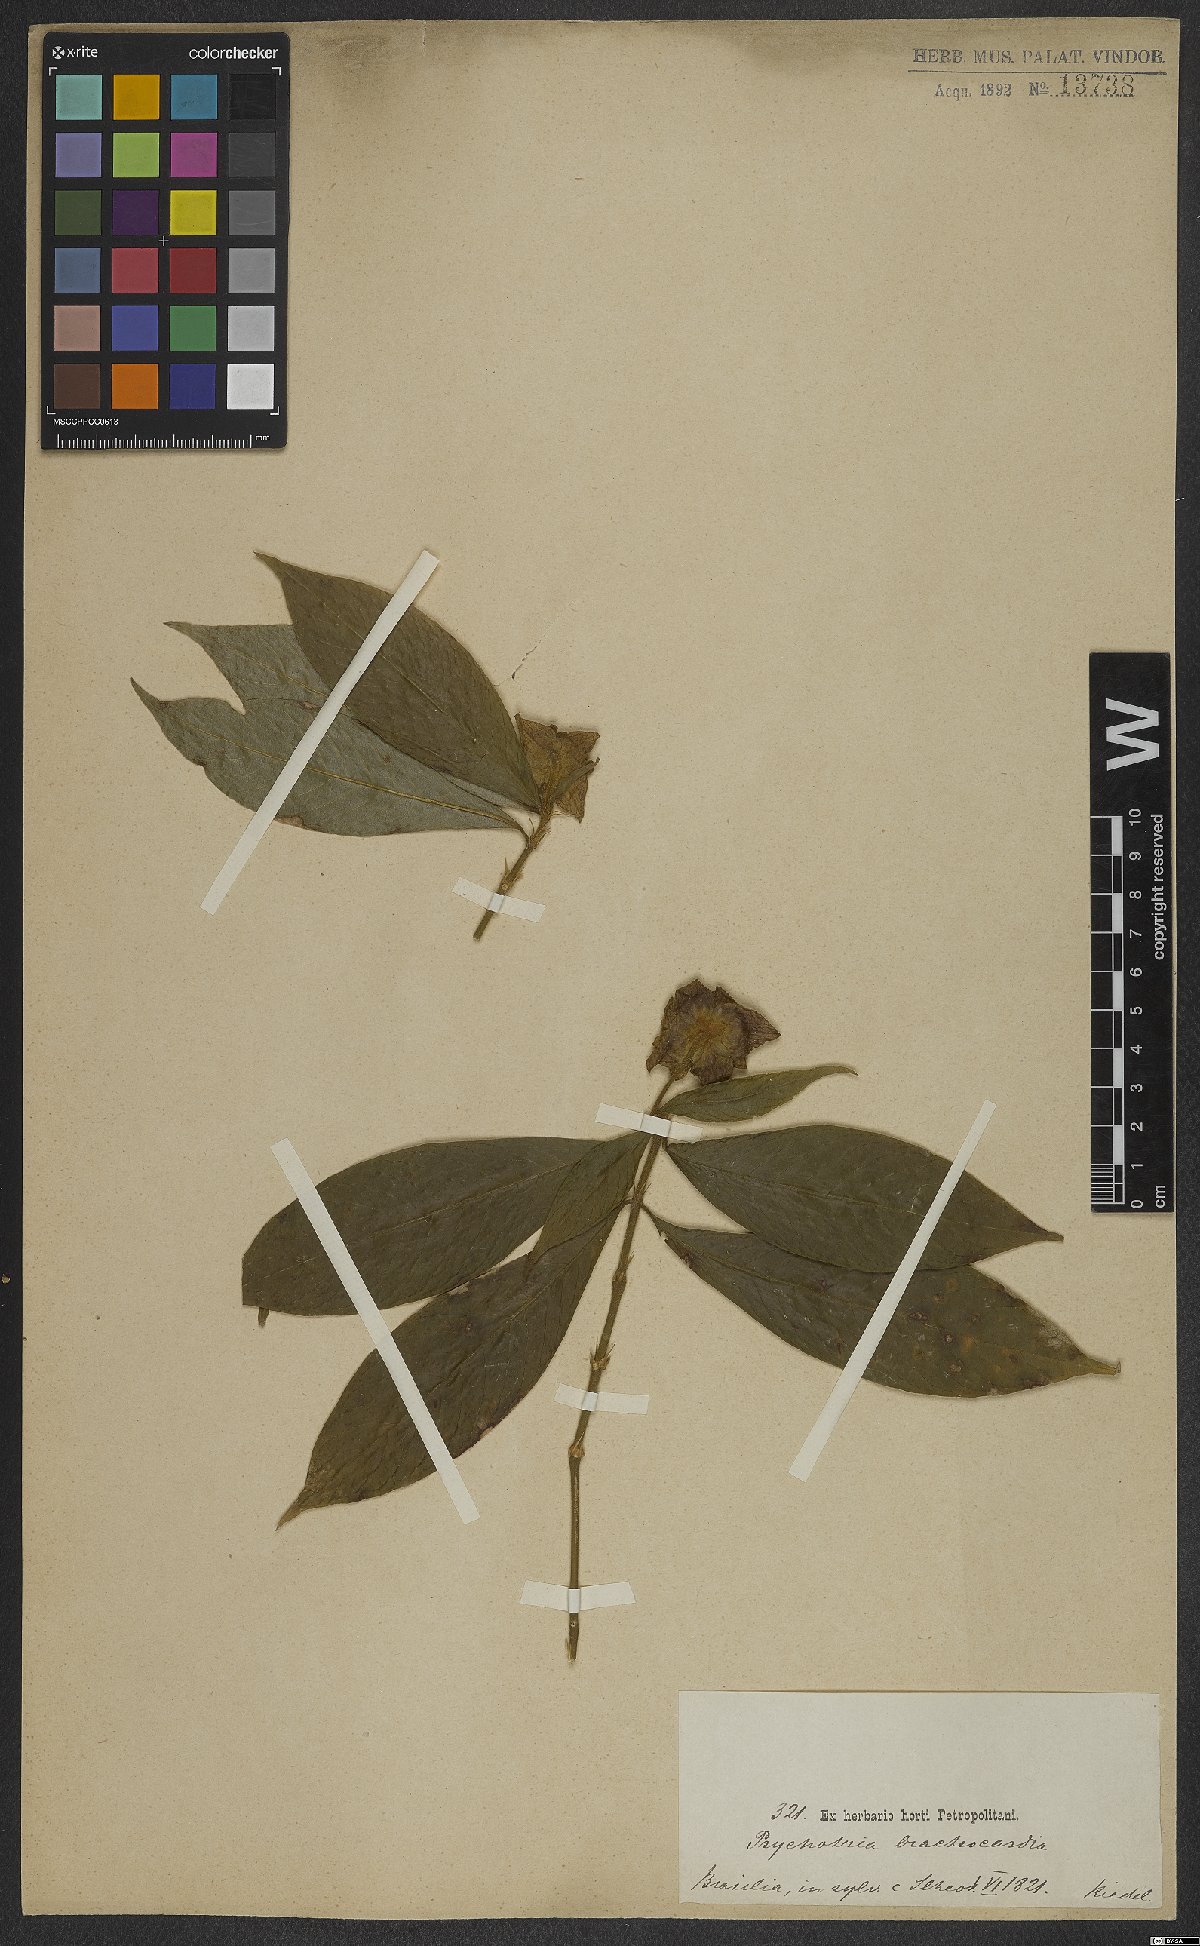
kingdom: Plantae
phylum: Tracheophyta
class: Magnoliopsida
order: Gentianales
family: Rubiaceae
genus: Palicourea
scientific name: Palicourea bracteocardia
